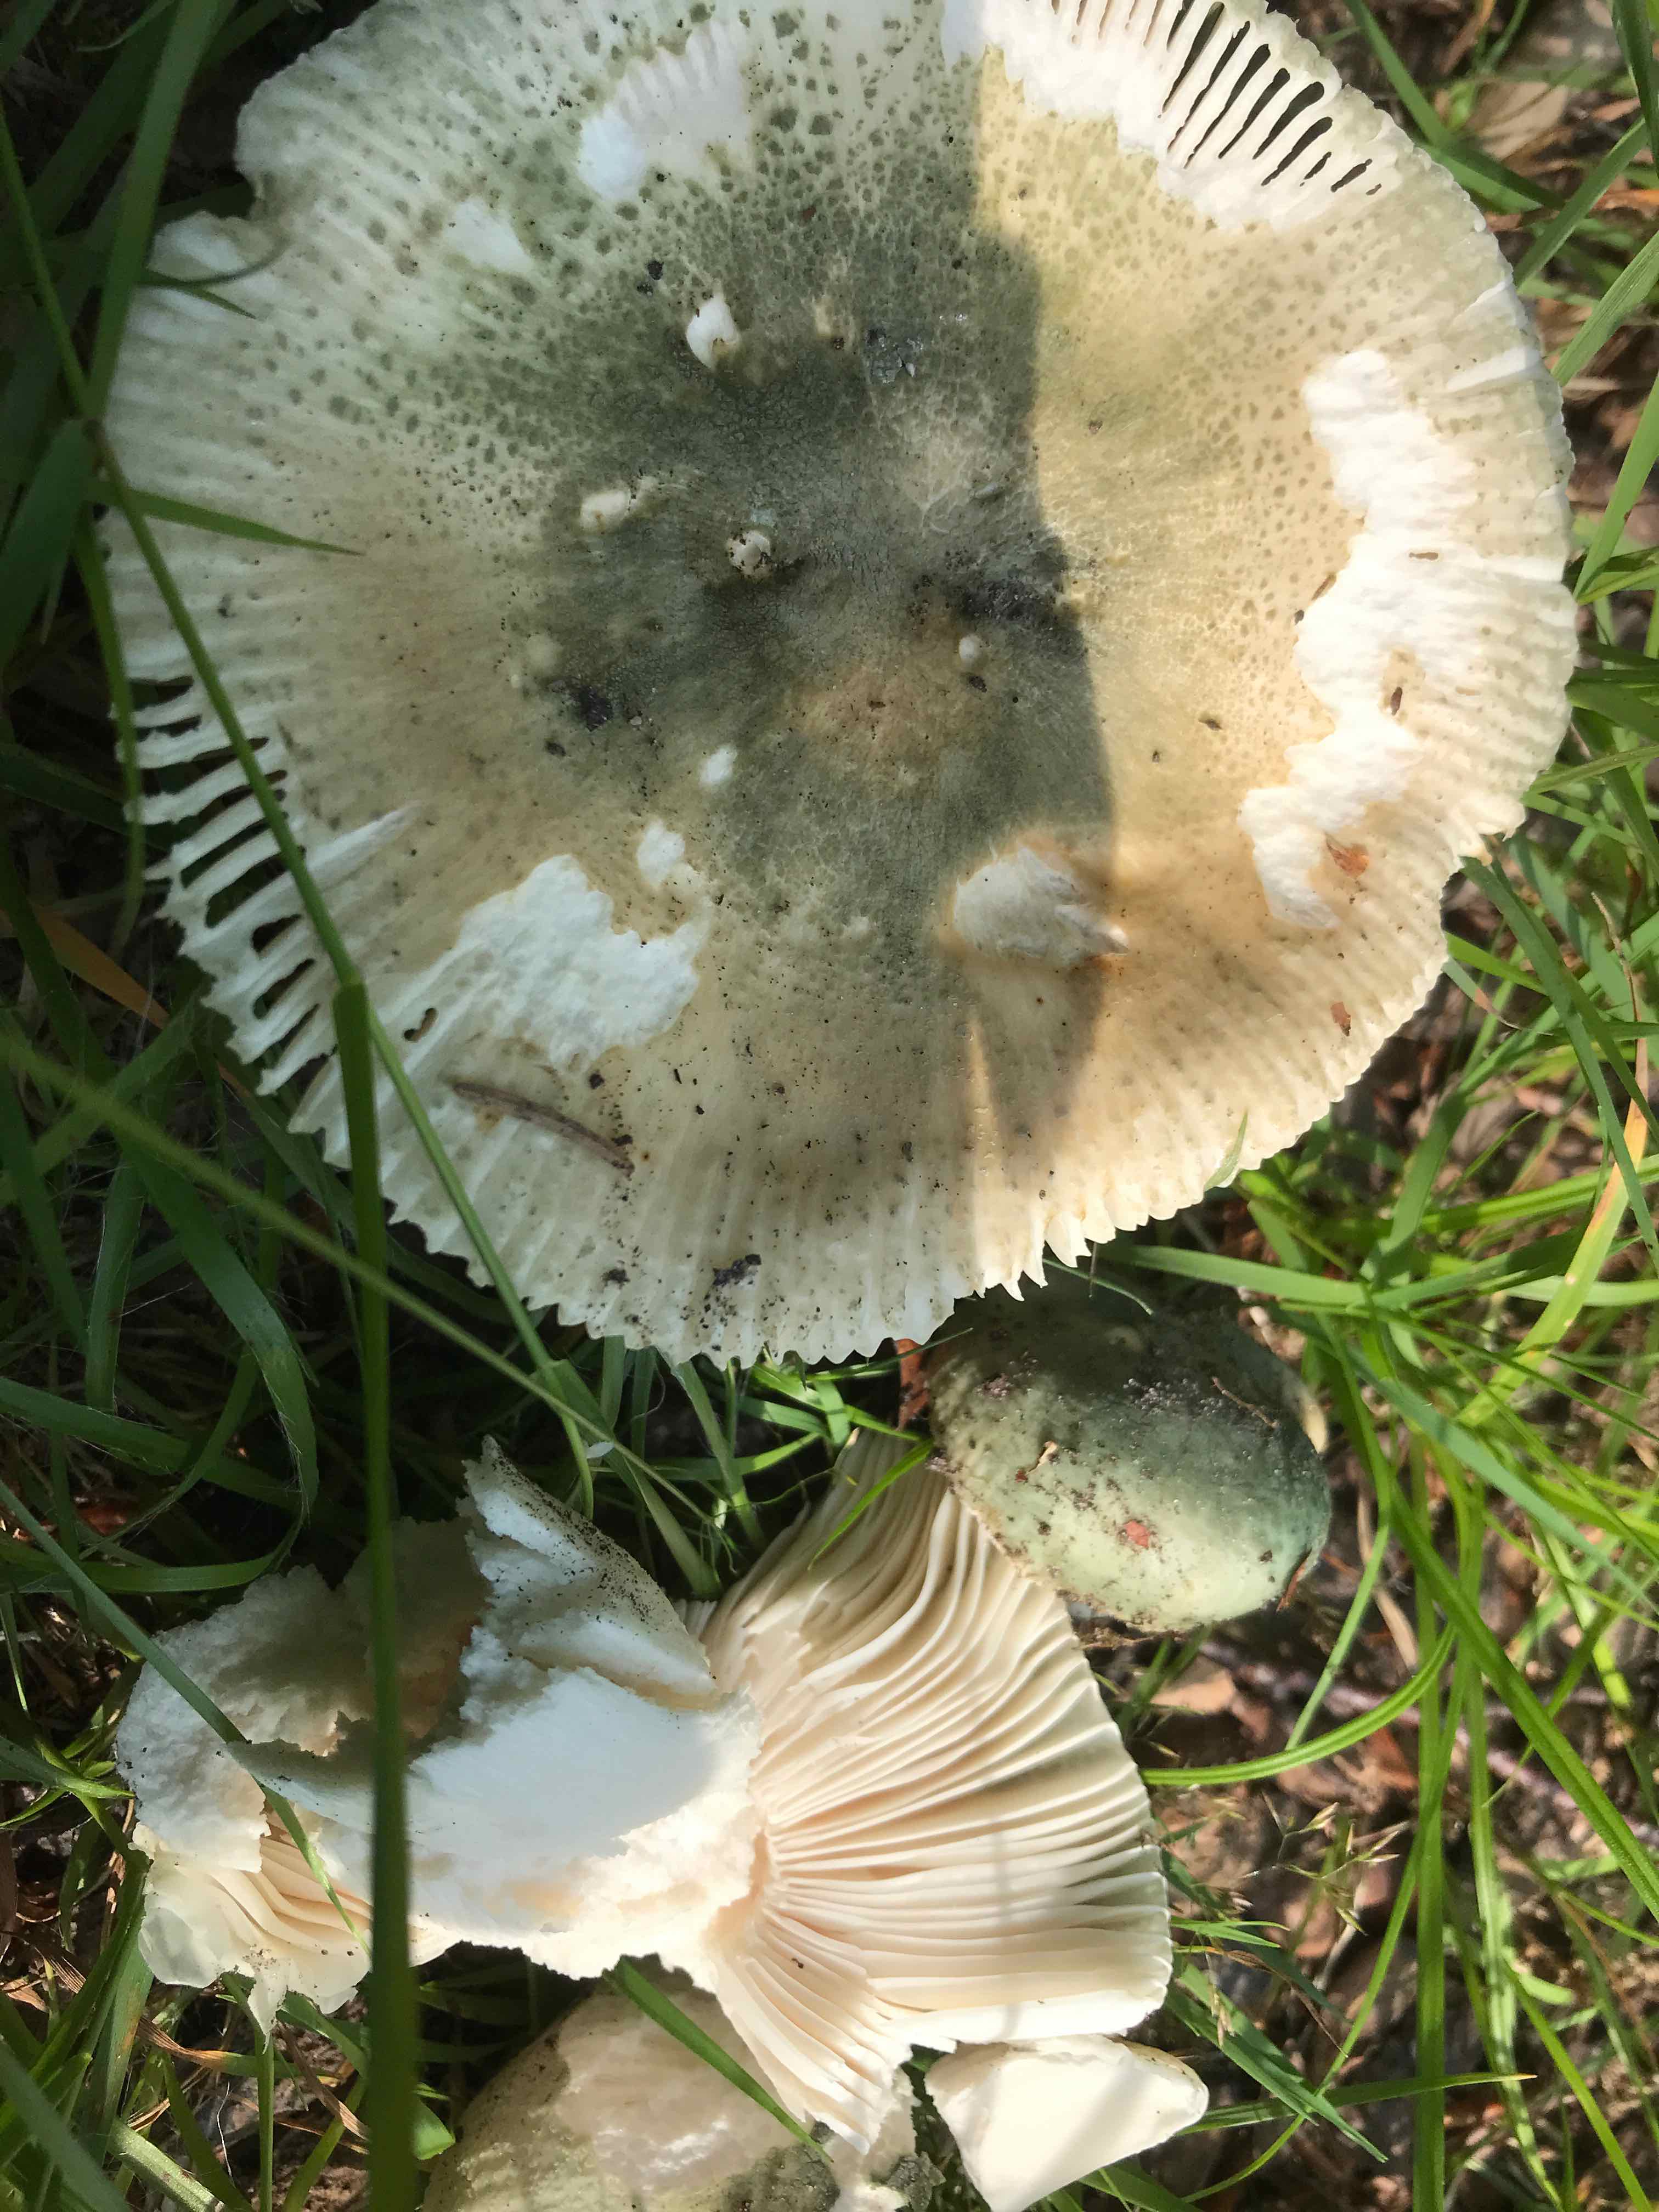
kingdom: Fungi
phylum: Basidiomycota
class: Agaricomycetes
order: Russulales
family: Russulaceae
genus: Russula
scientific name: Russula virescens
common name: spanskgrøn skørhat
